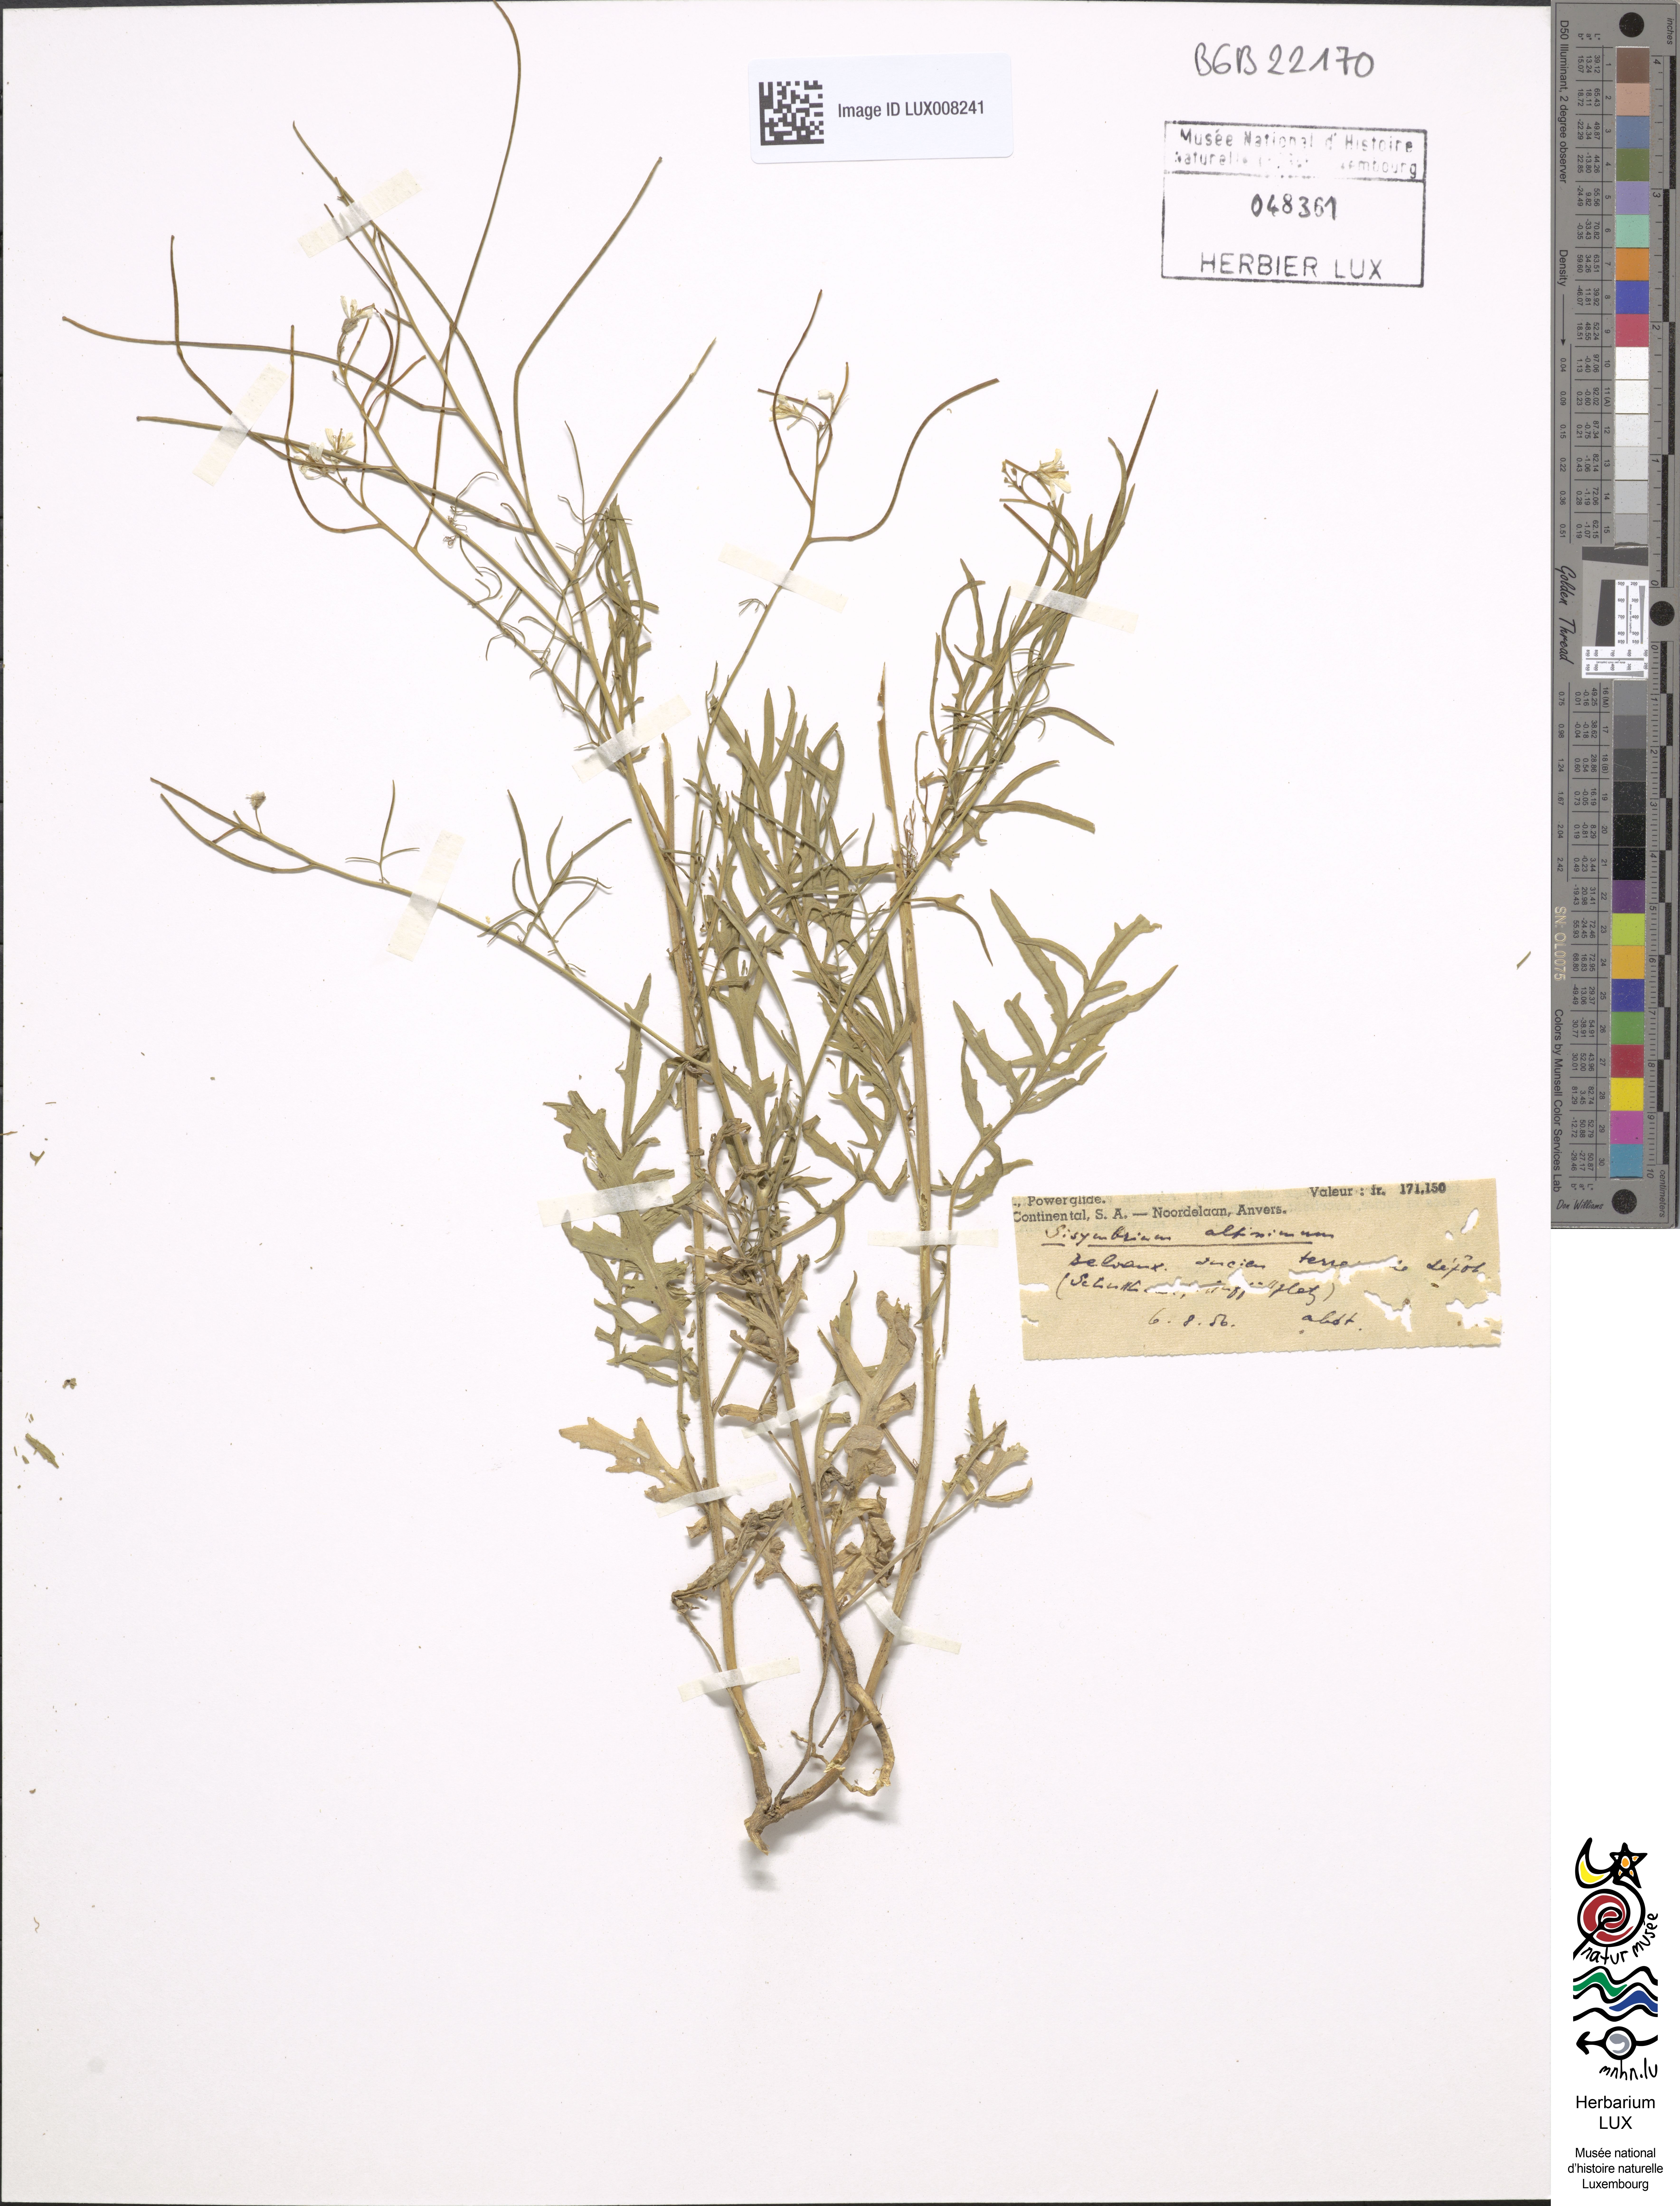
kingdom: Plantae
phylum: Tracheophyta
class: Magnoliopsida
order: Brassicales
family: Brassicaceae
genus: Sisymbrium
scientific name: Sisymbrium altissimum
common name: Tall rocket
